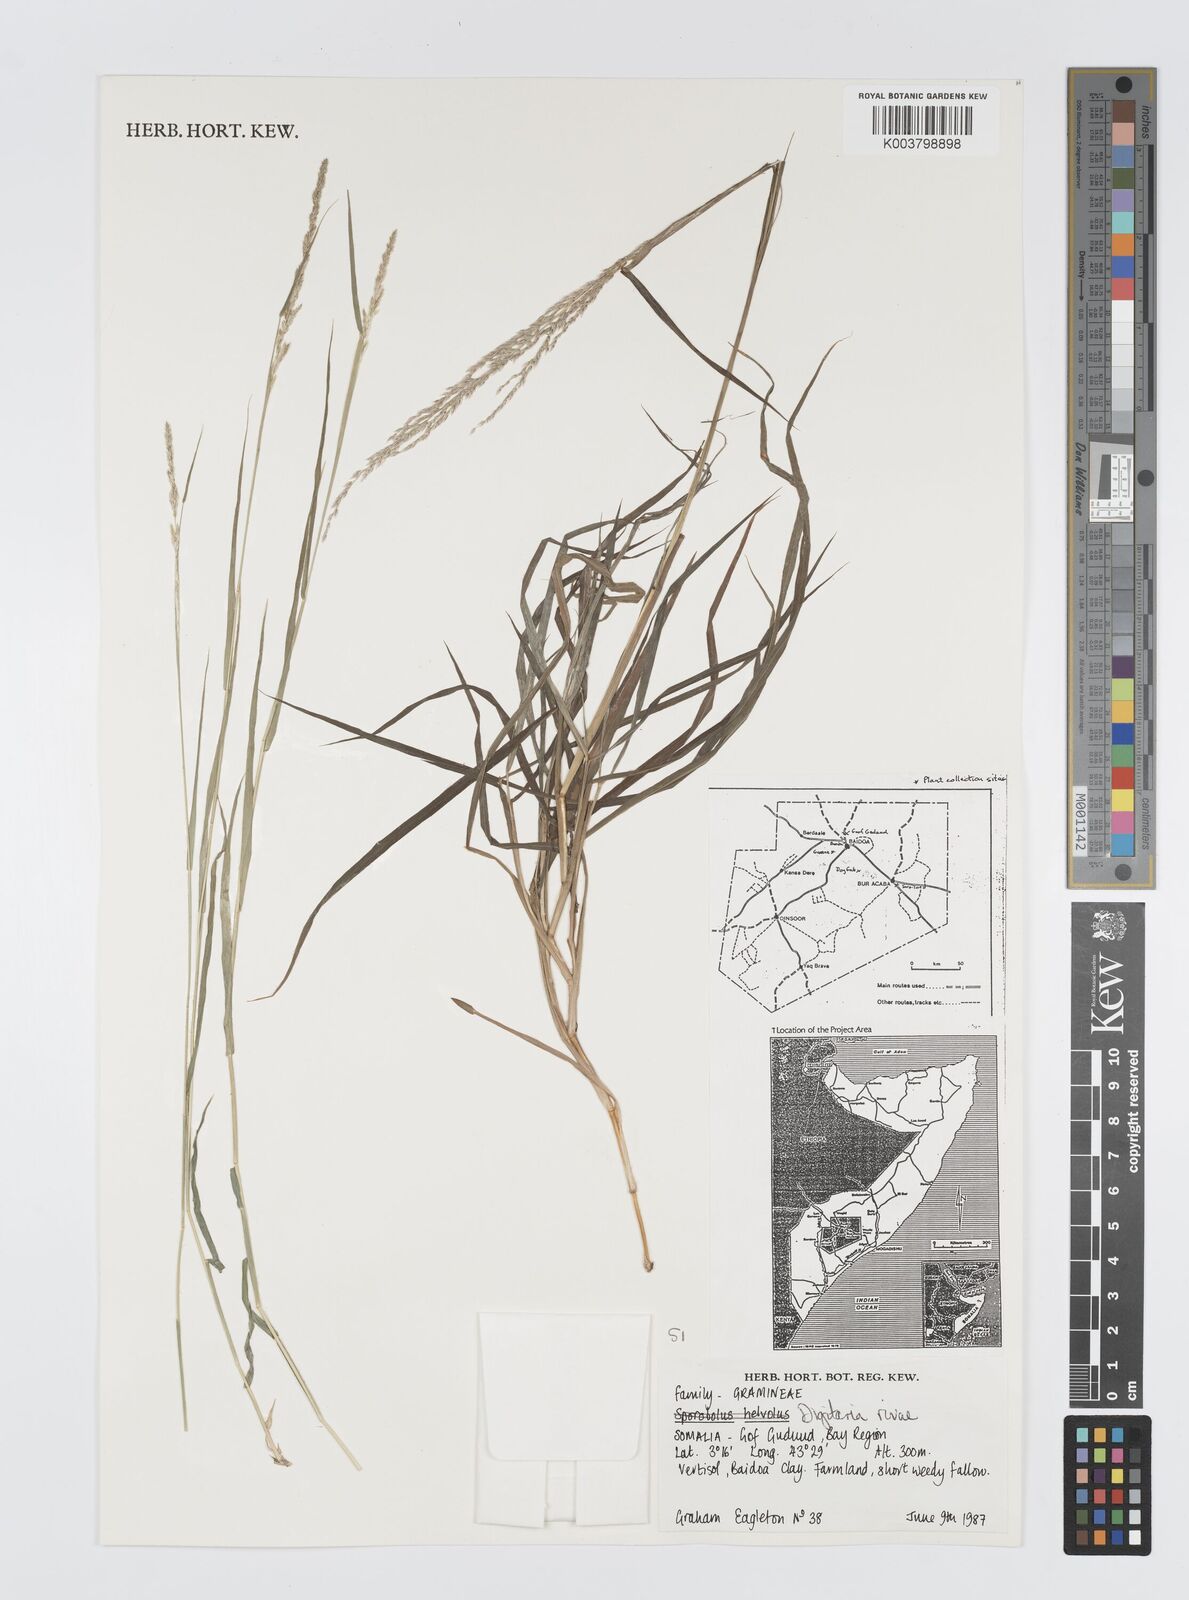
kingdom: Plantae
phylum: Tracheophyta
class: Liliopsida
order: Poales
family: Poaceae
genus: Digitaria
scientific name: Digitaria rivae
